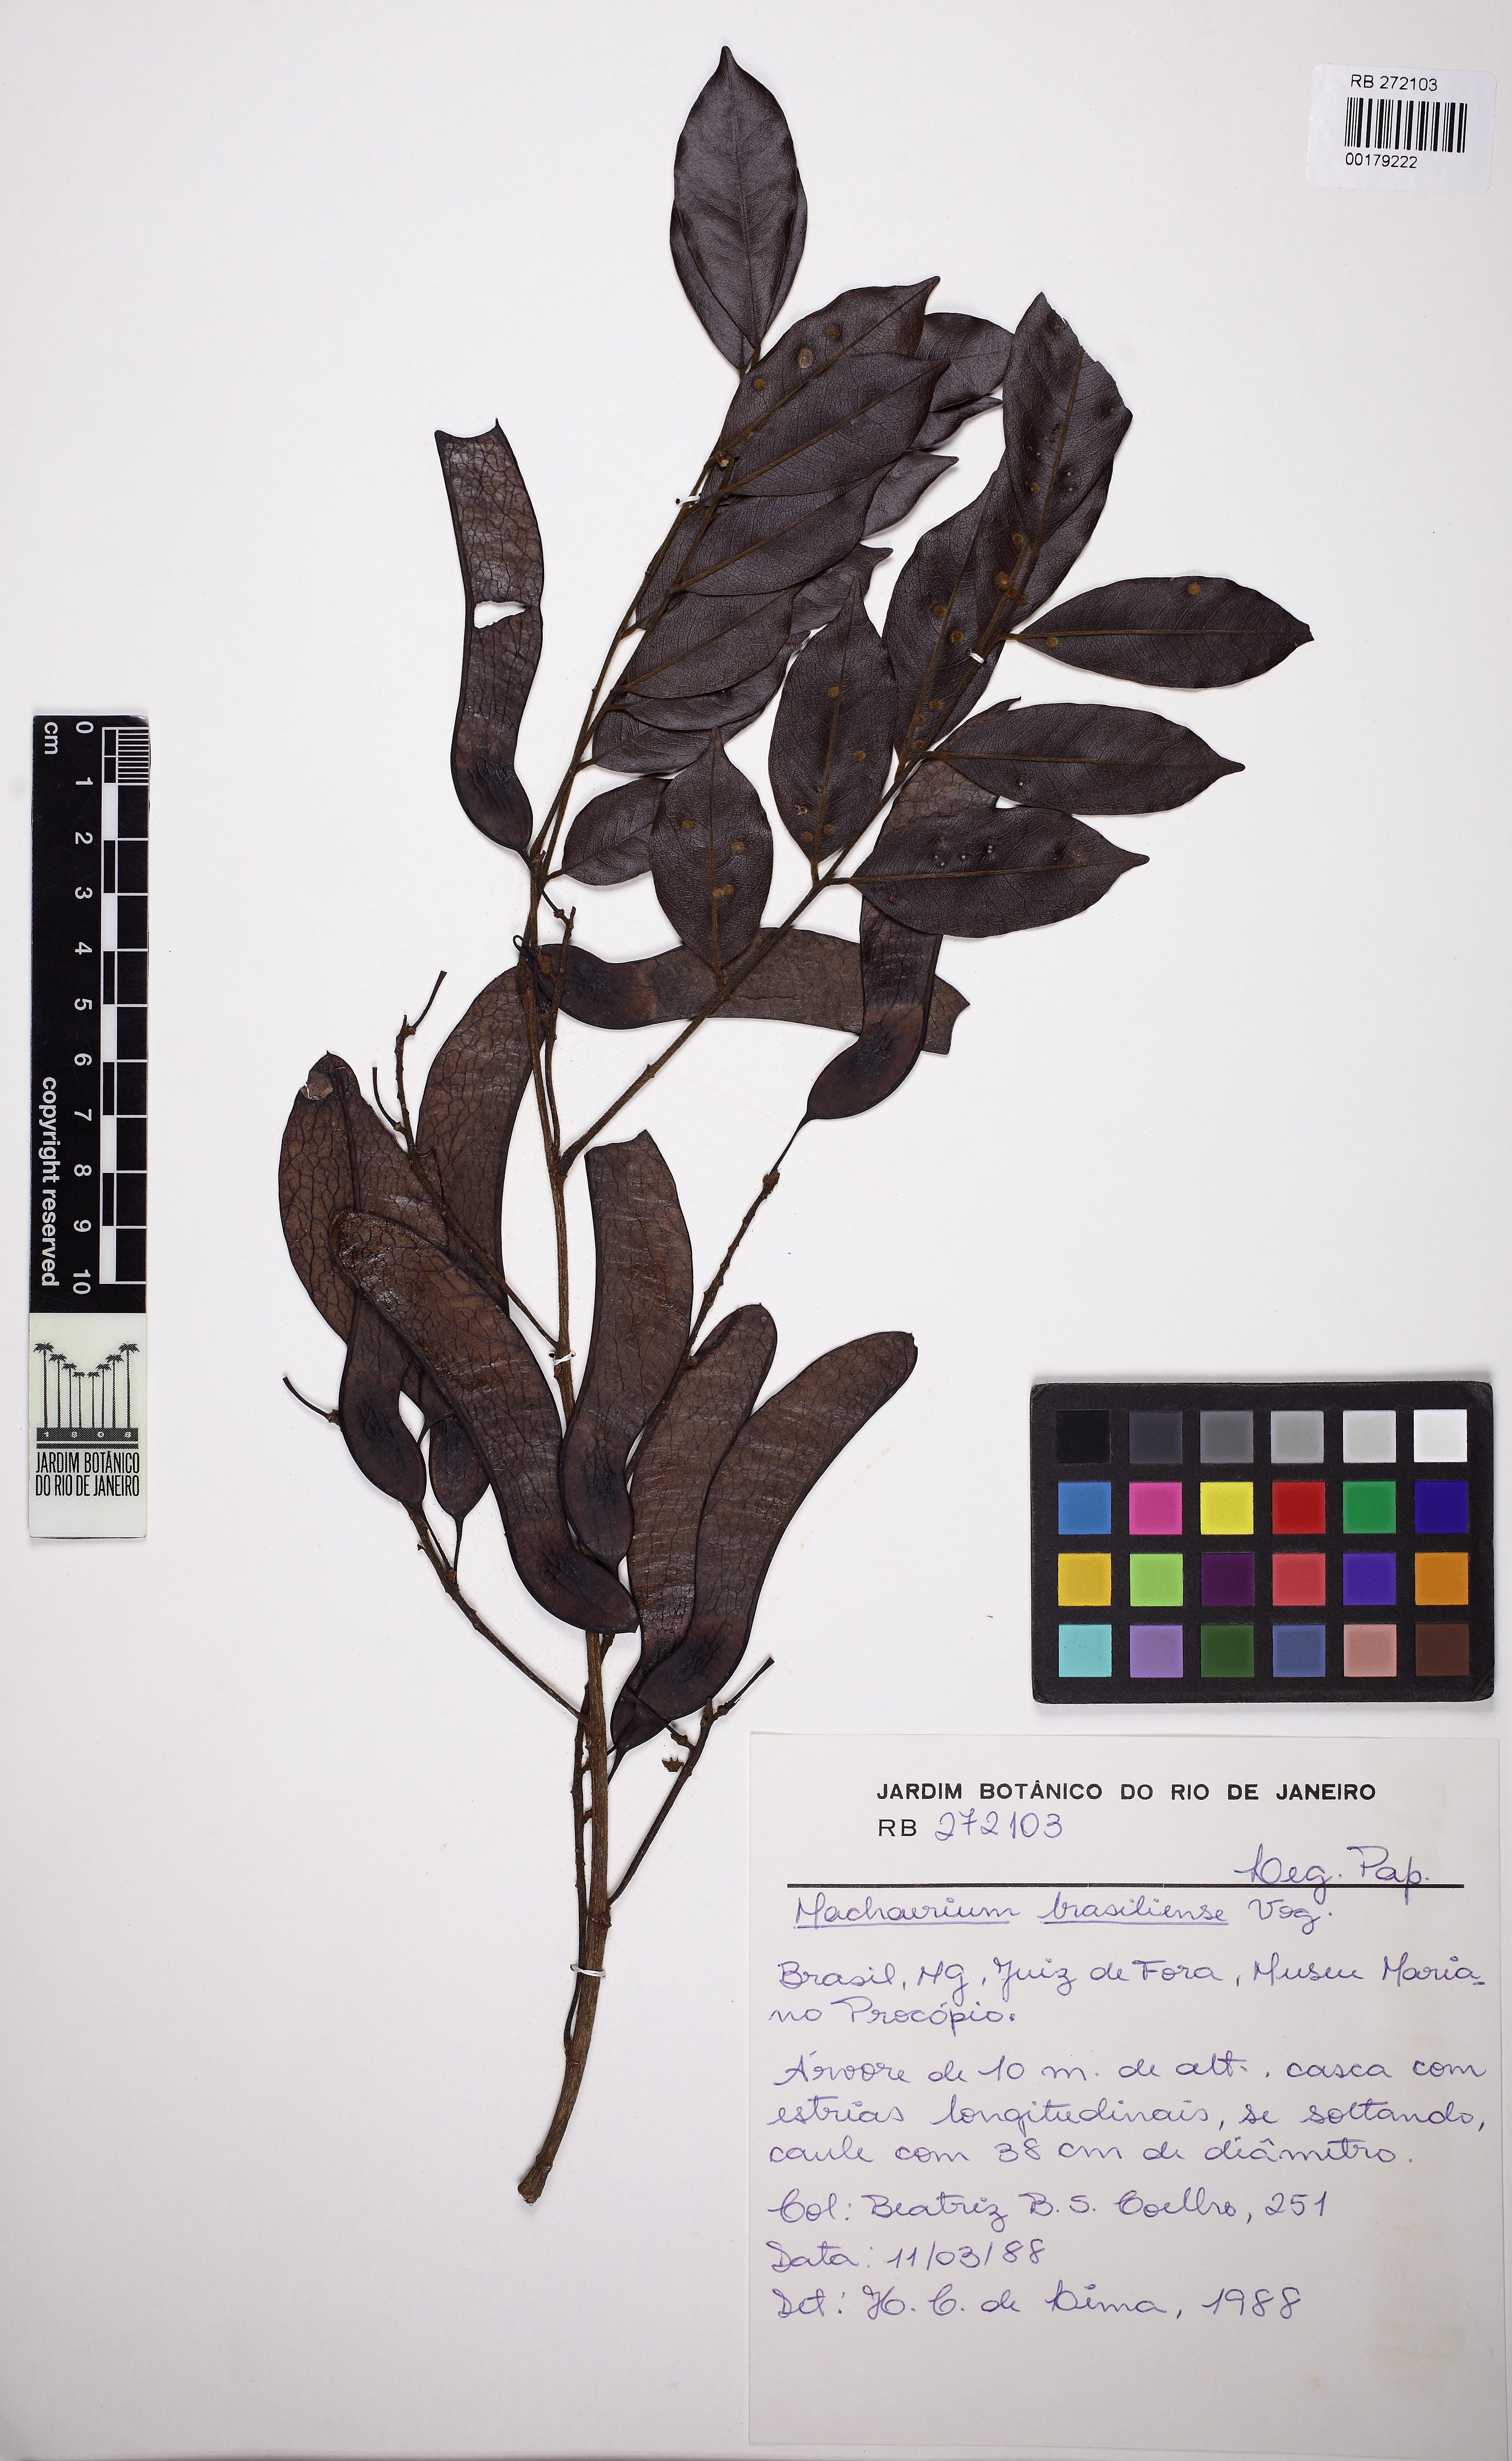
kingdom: Plantae
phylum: Tracheophyta
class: Magnoliopsida
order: Fabales
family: Fabaceae
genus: Machaerium
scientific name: Machaerium brasiliense
